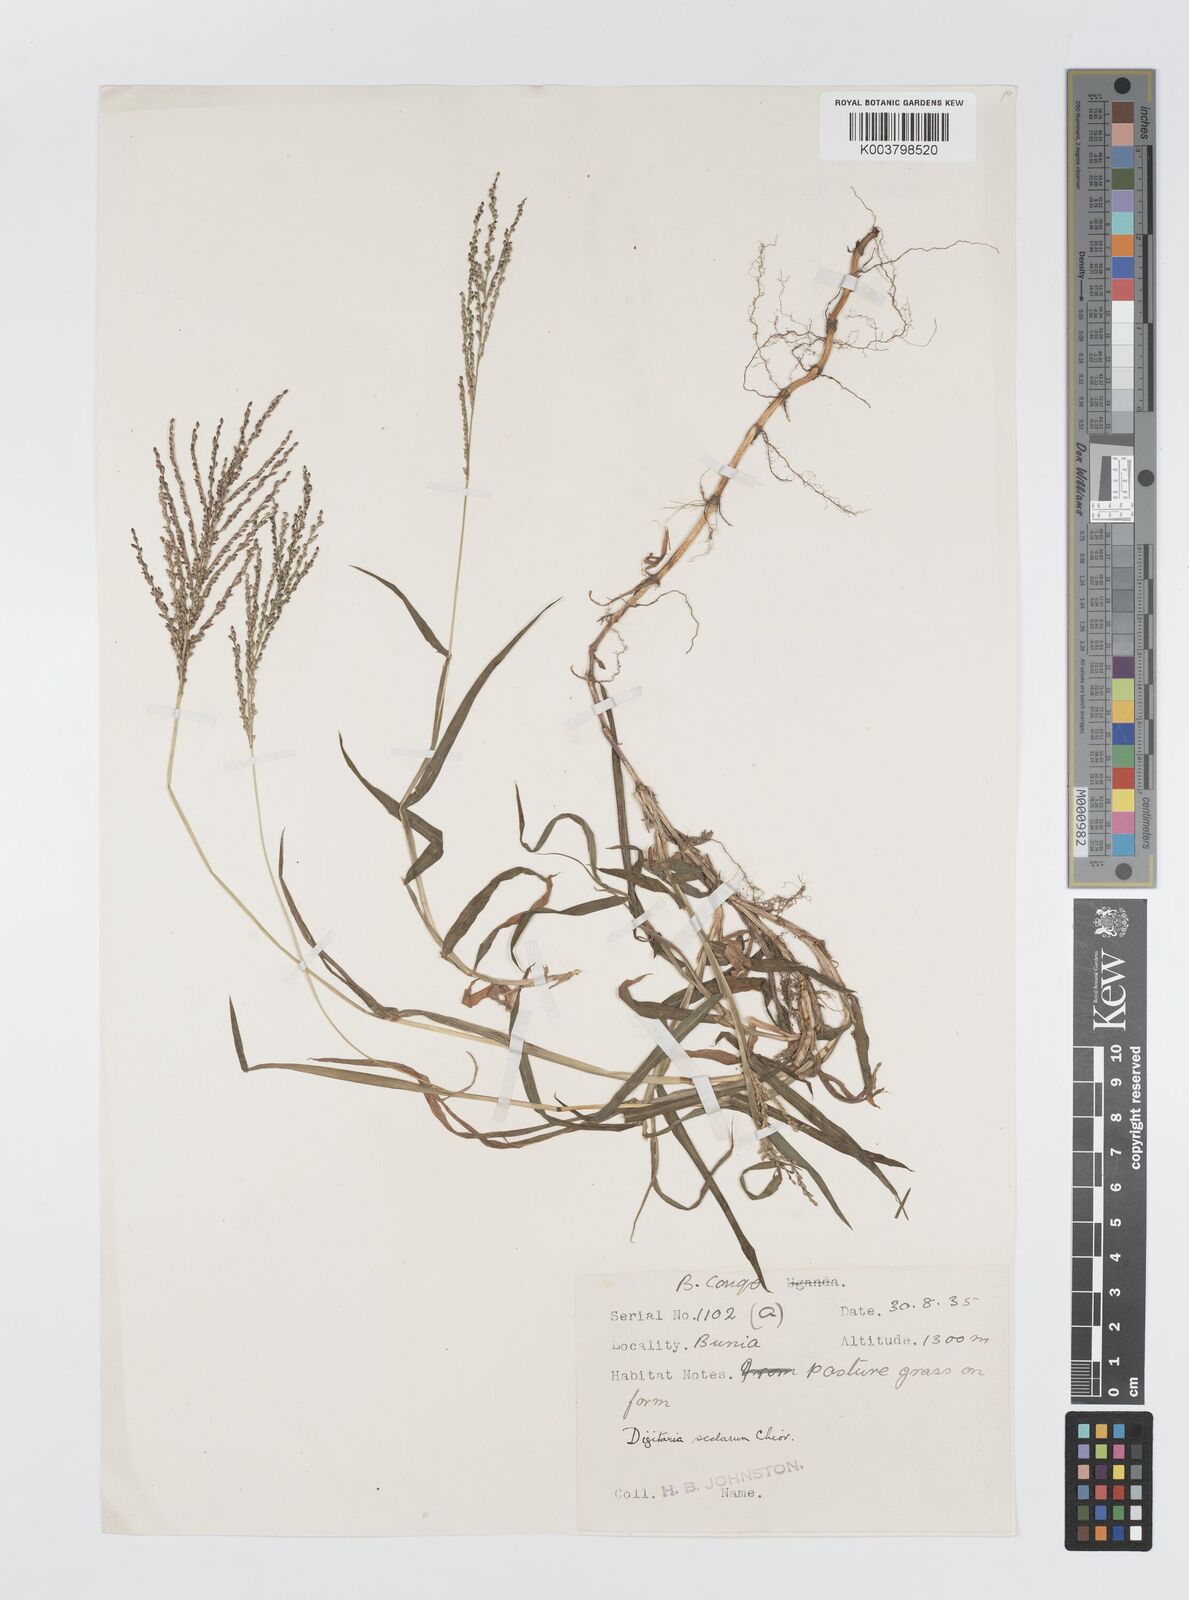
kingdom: Plantae
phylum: Tracheophyta
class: Liliopsida
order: Poales
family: Poaceae
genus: Digitaria
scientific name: Digitaria abyssinica
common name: African couchgrass
